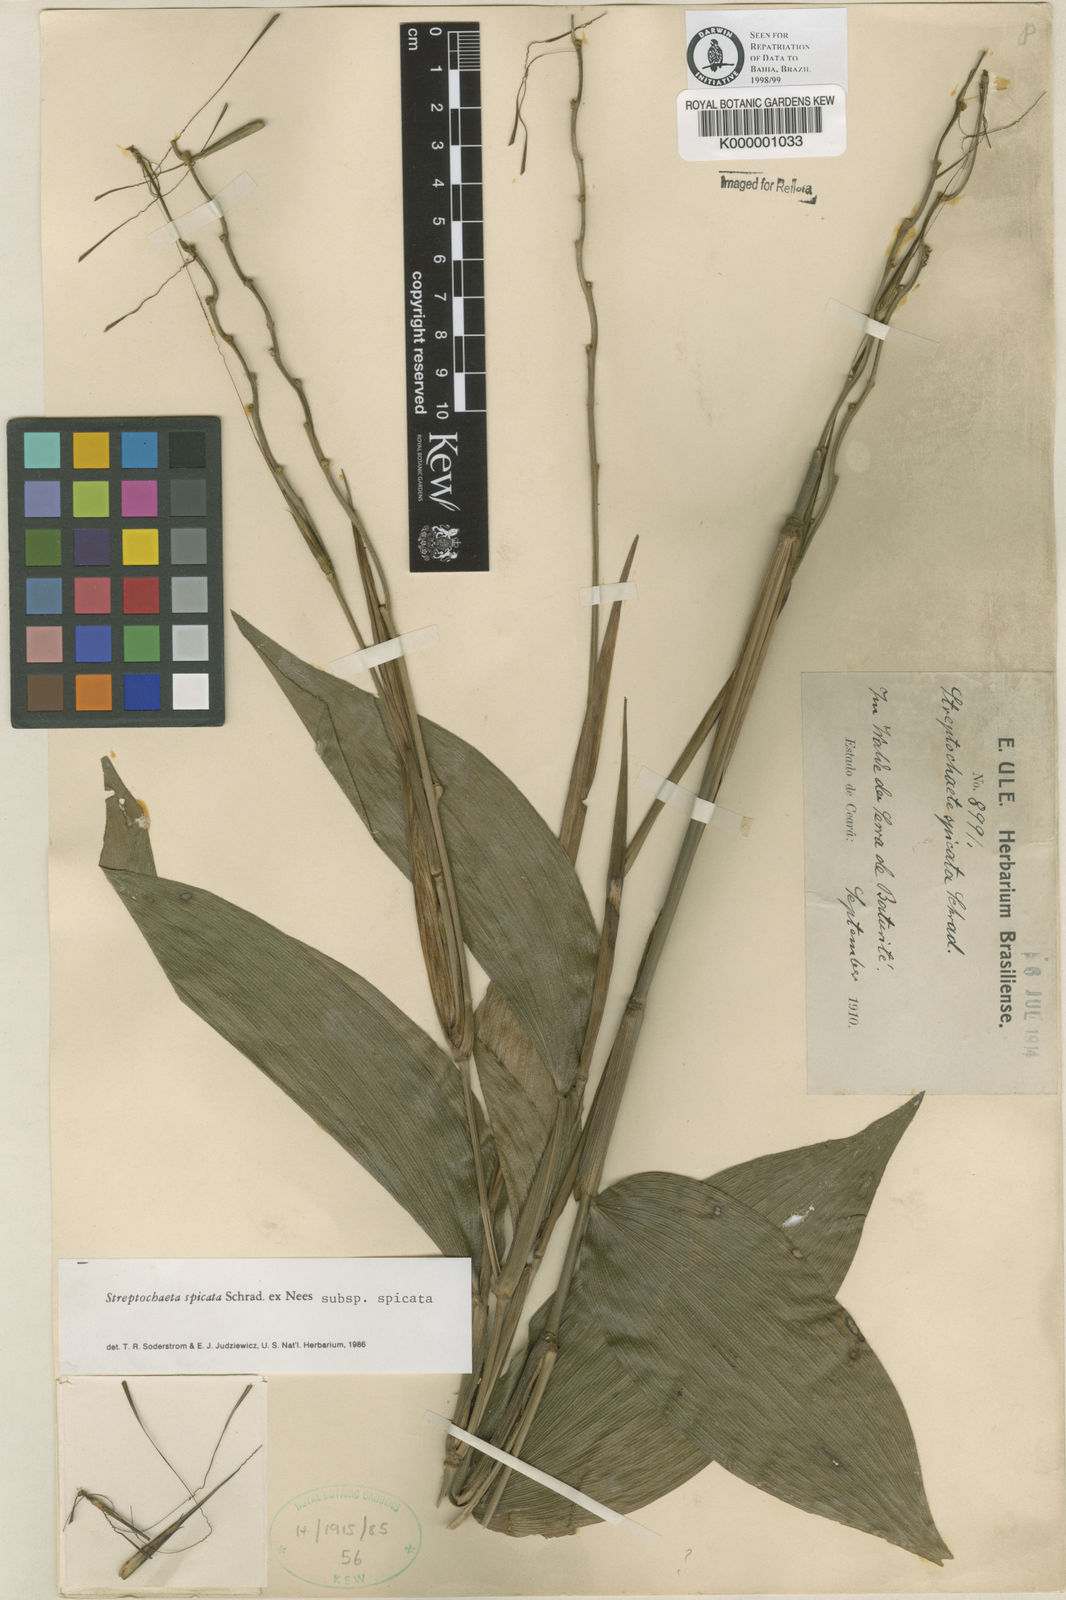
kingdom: Plantae
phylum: Tracheophyta
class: Liliopsida
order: Poales
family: Poaceae
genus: Streptochaeta
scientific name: Streptochaeta spicata
